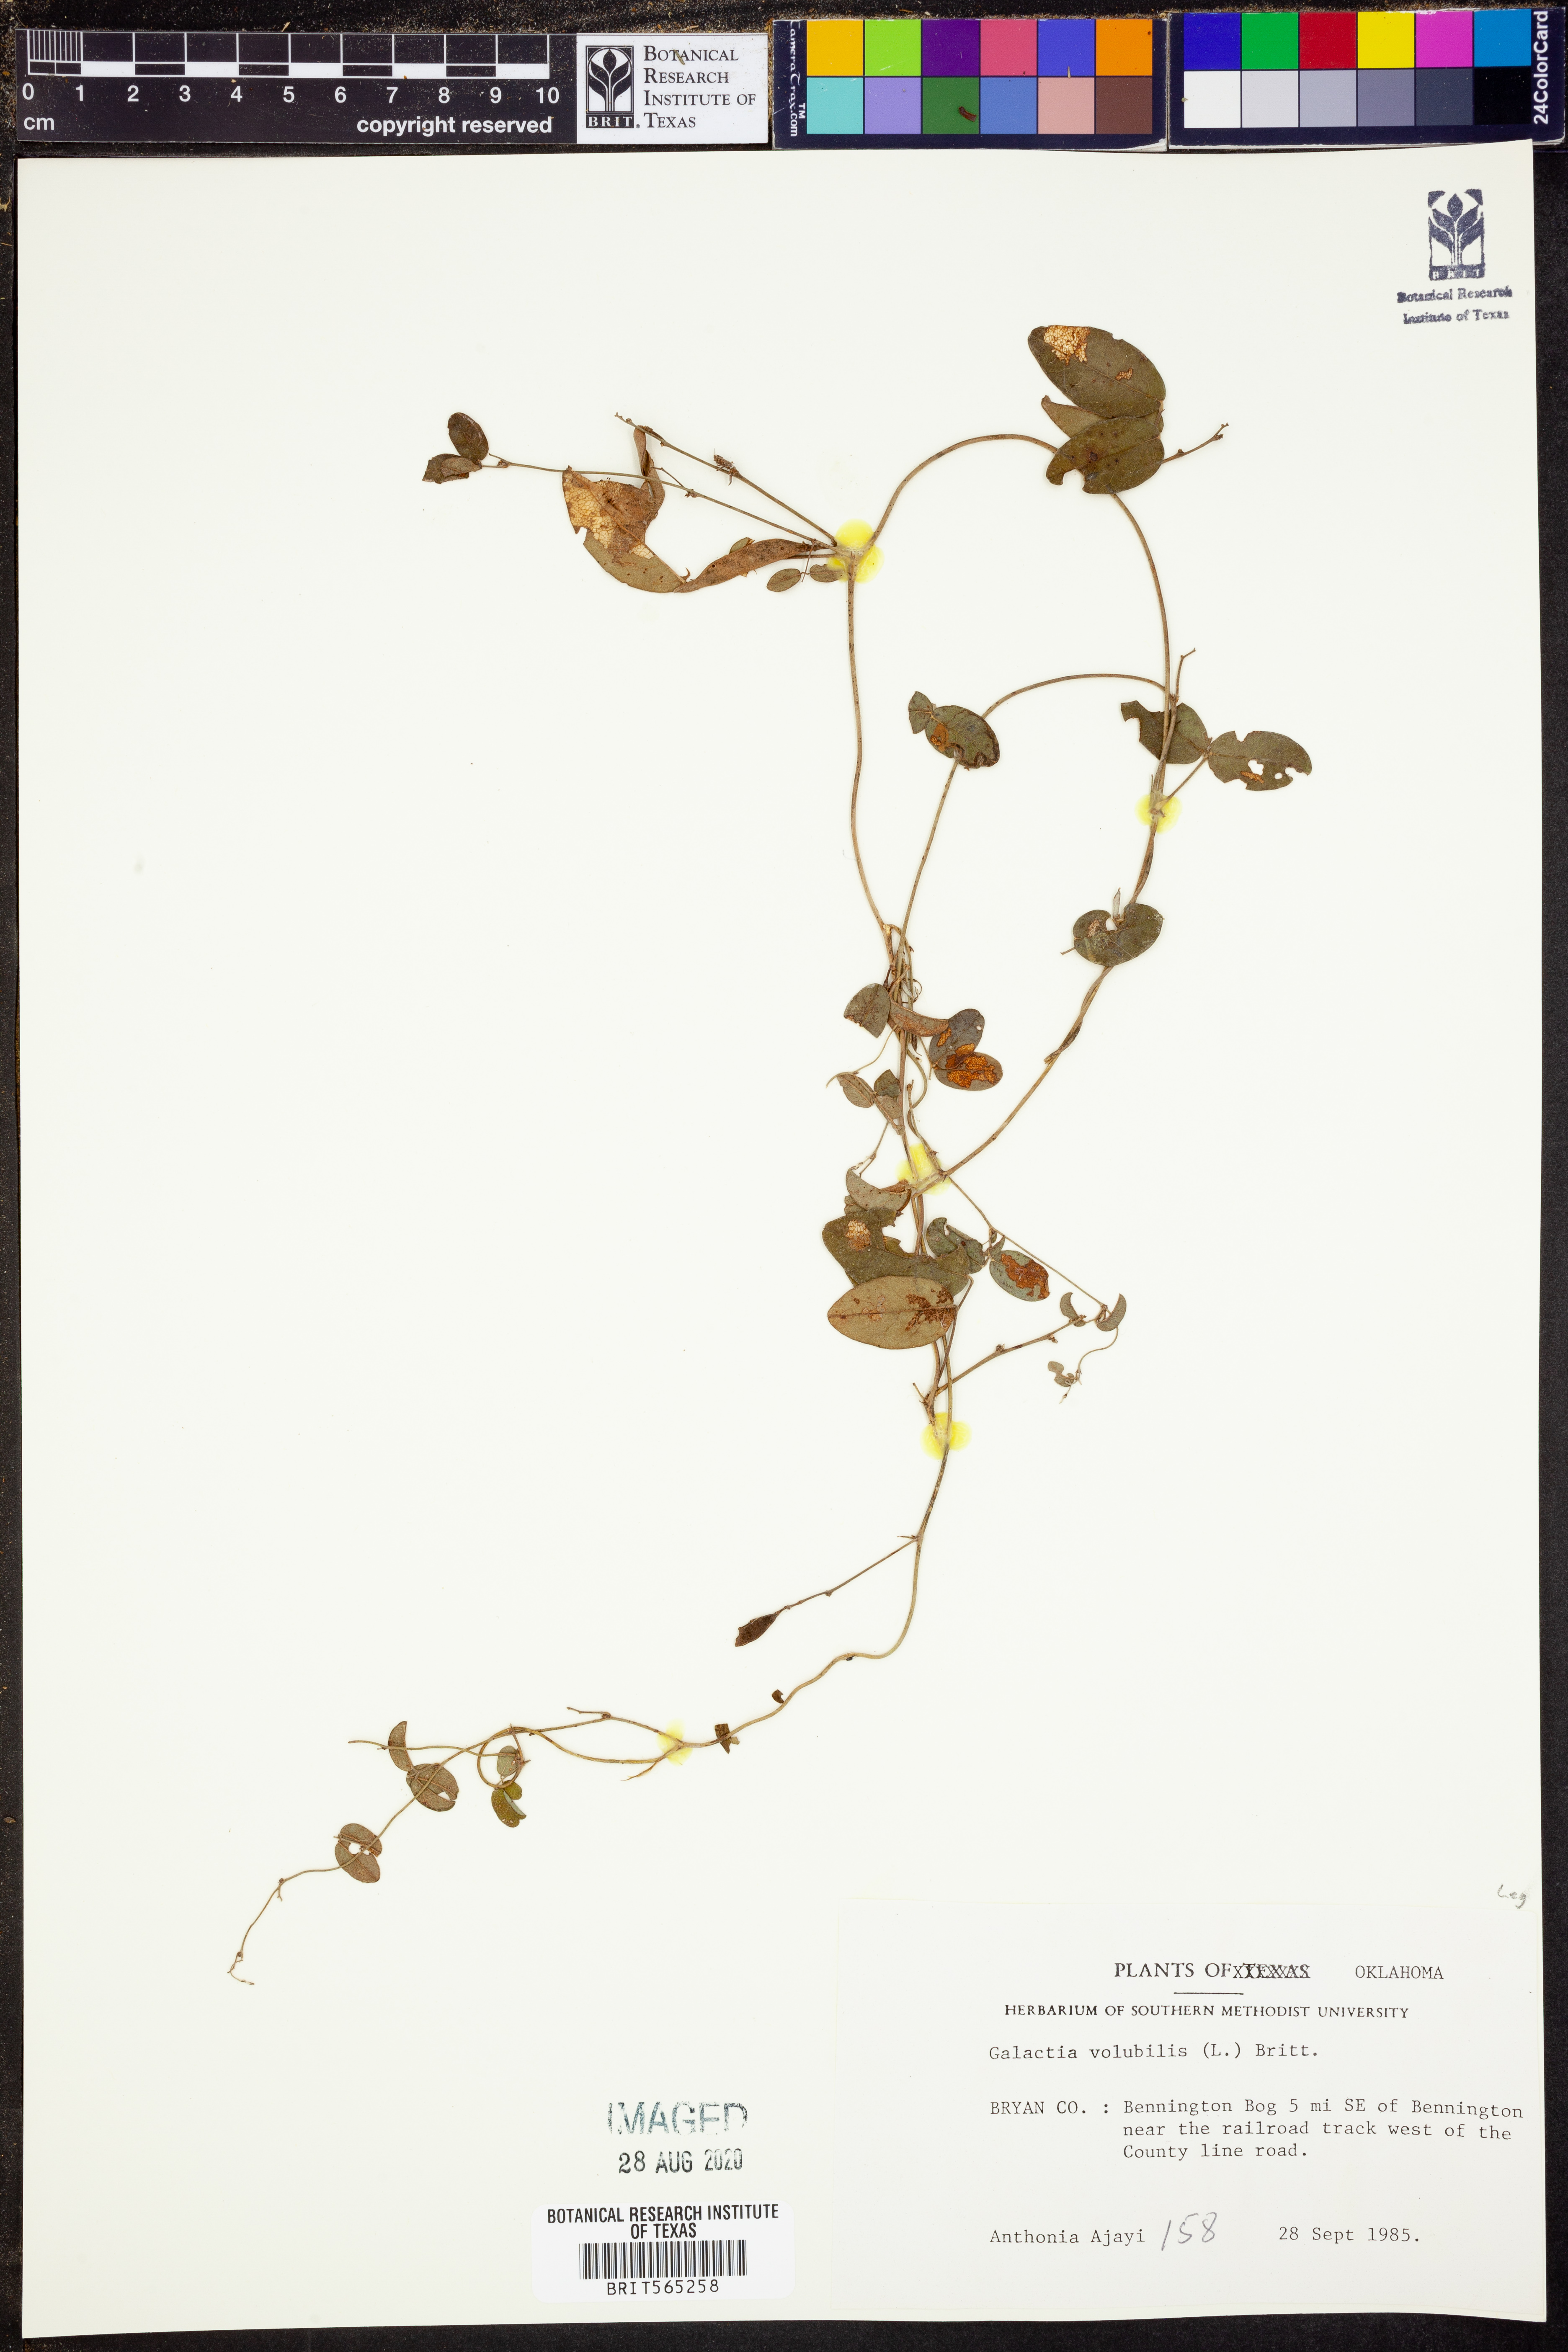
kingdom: Plantae
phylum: Tracheophyta
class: Magnoliopsida
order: Fabales
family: Fabaceae
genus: Galactia
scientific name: Galactia volubilis
